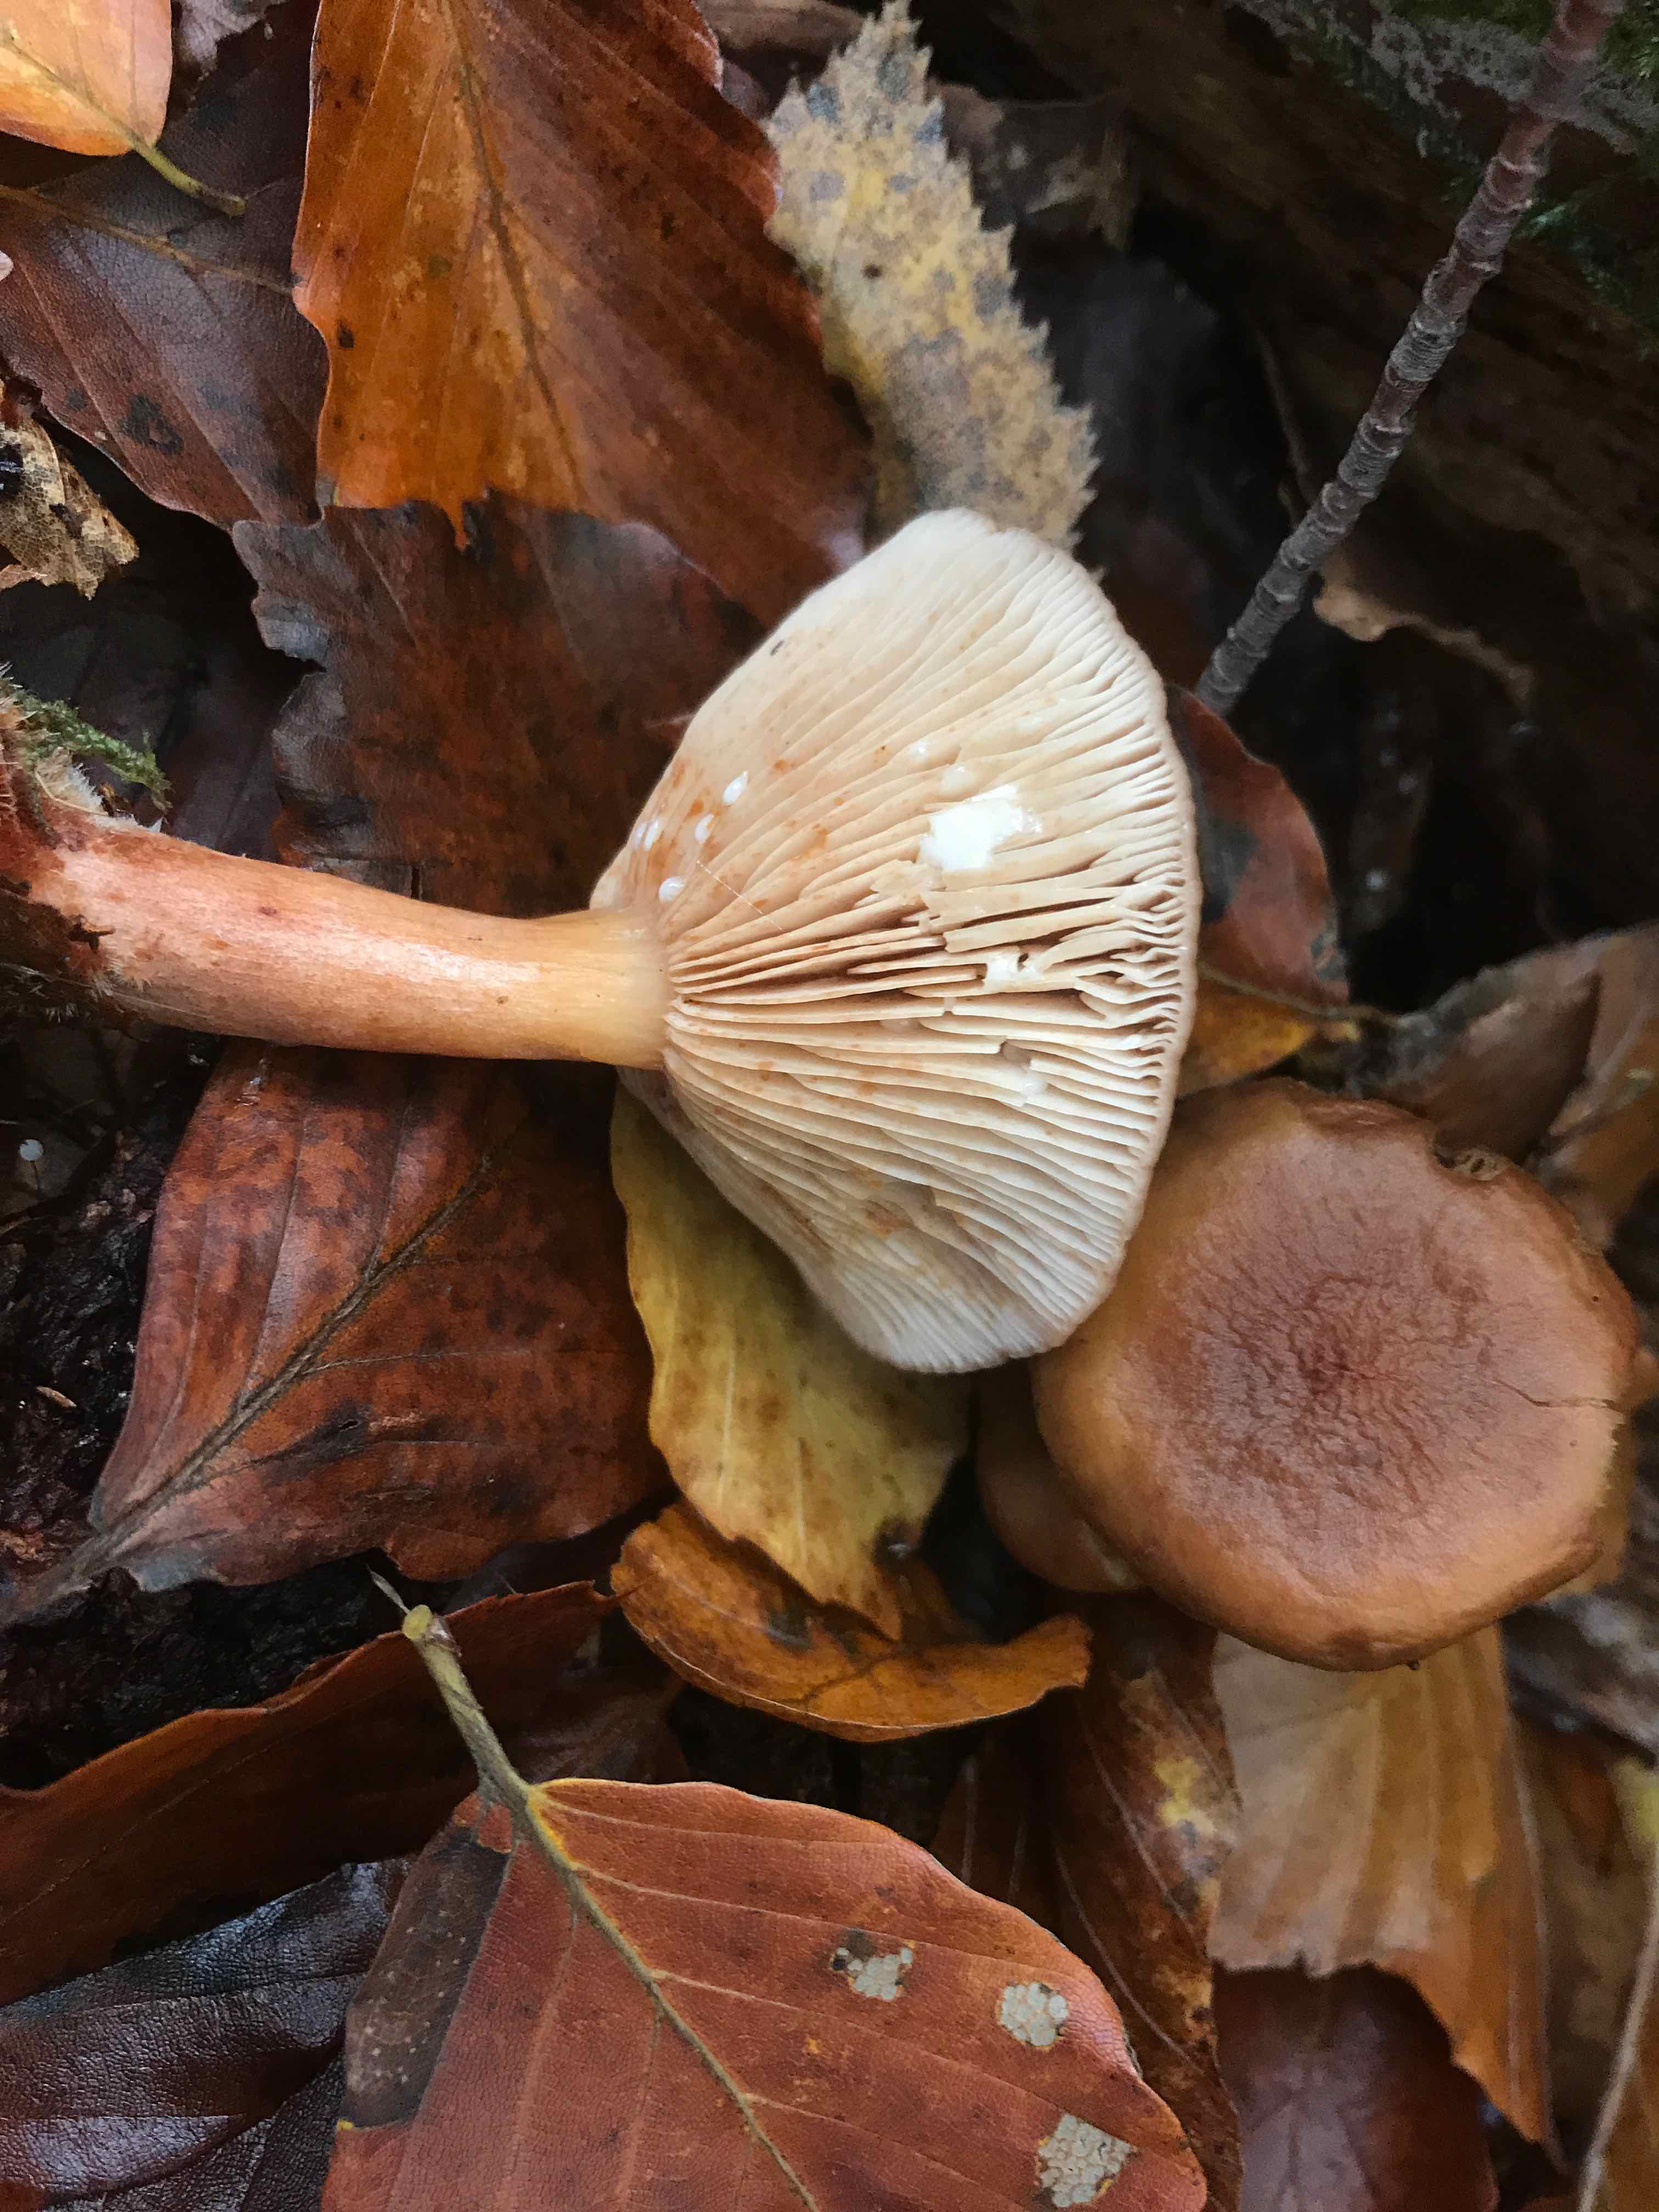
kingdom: Fungi
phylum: Basidiomycota
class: Agaricomycetes
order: Russulales
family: Russulaceae
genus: Lactarius
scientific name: Lactarius subdulcis
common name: sødlig mælkehat
